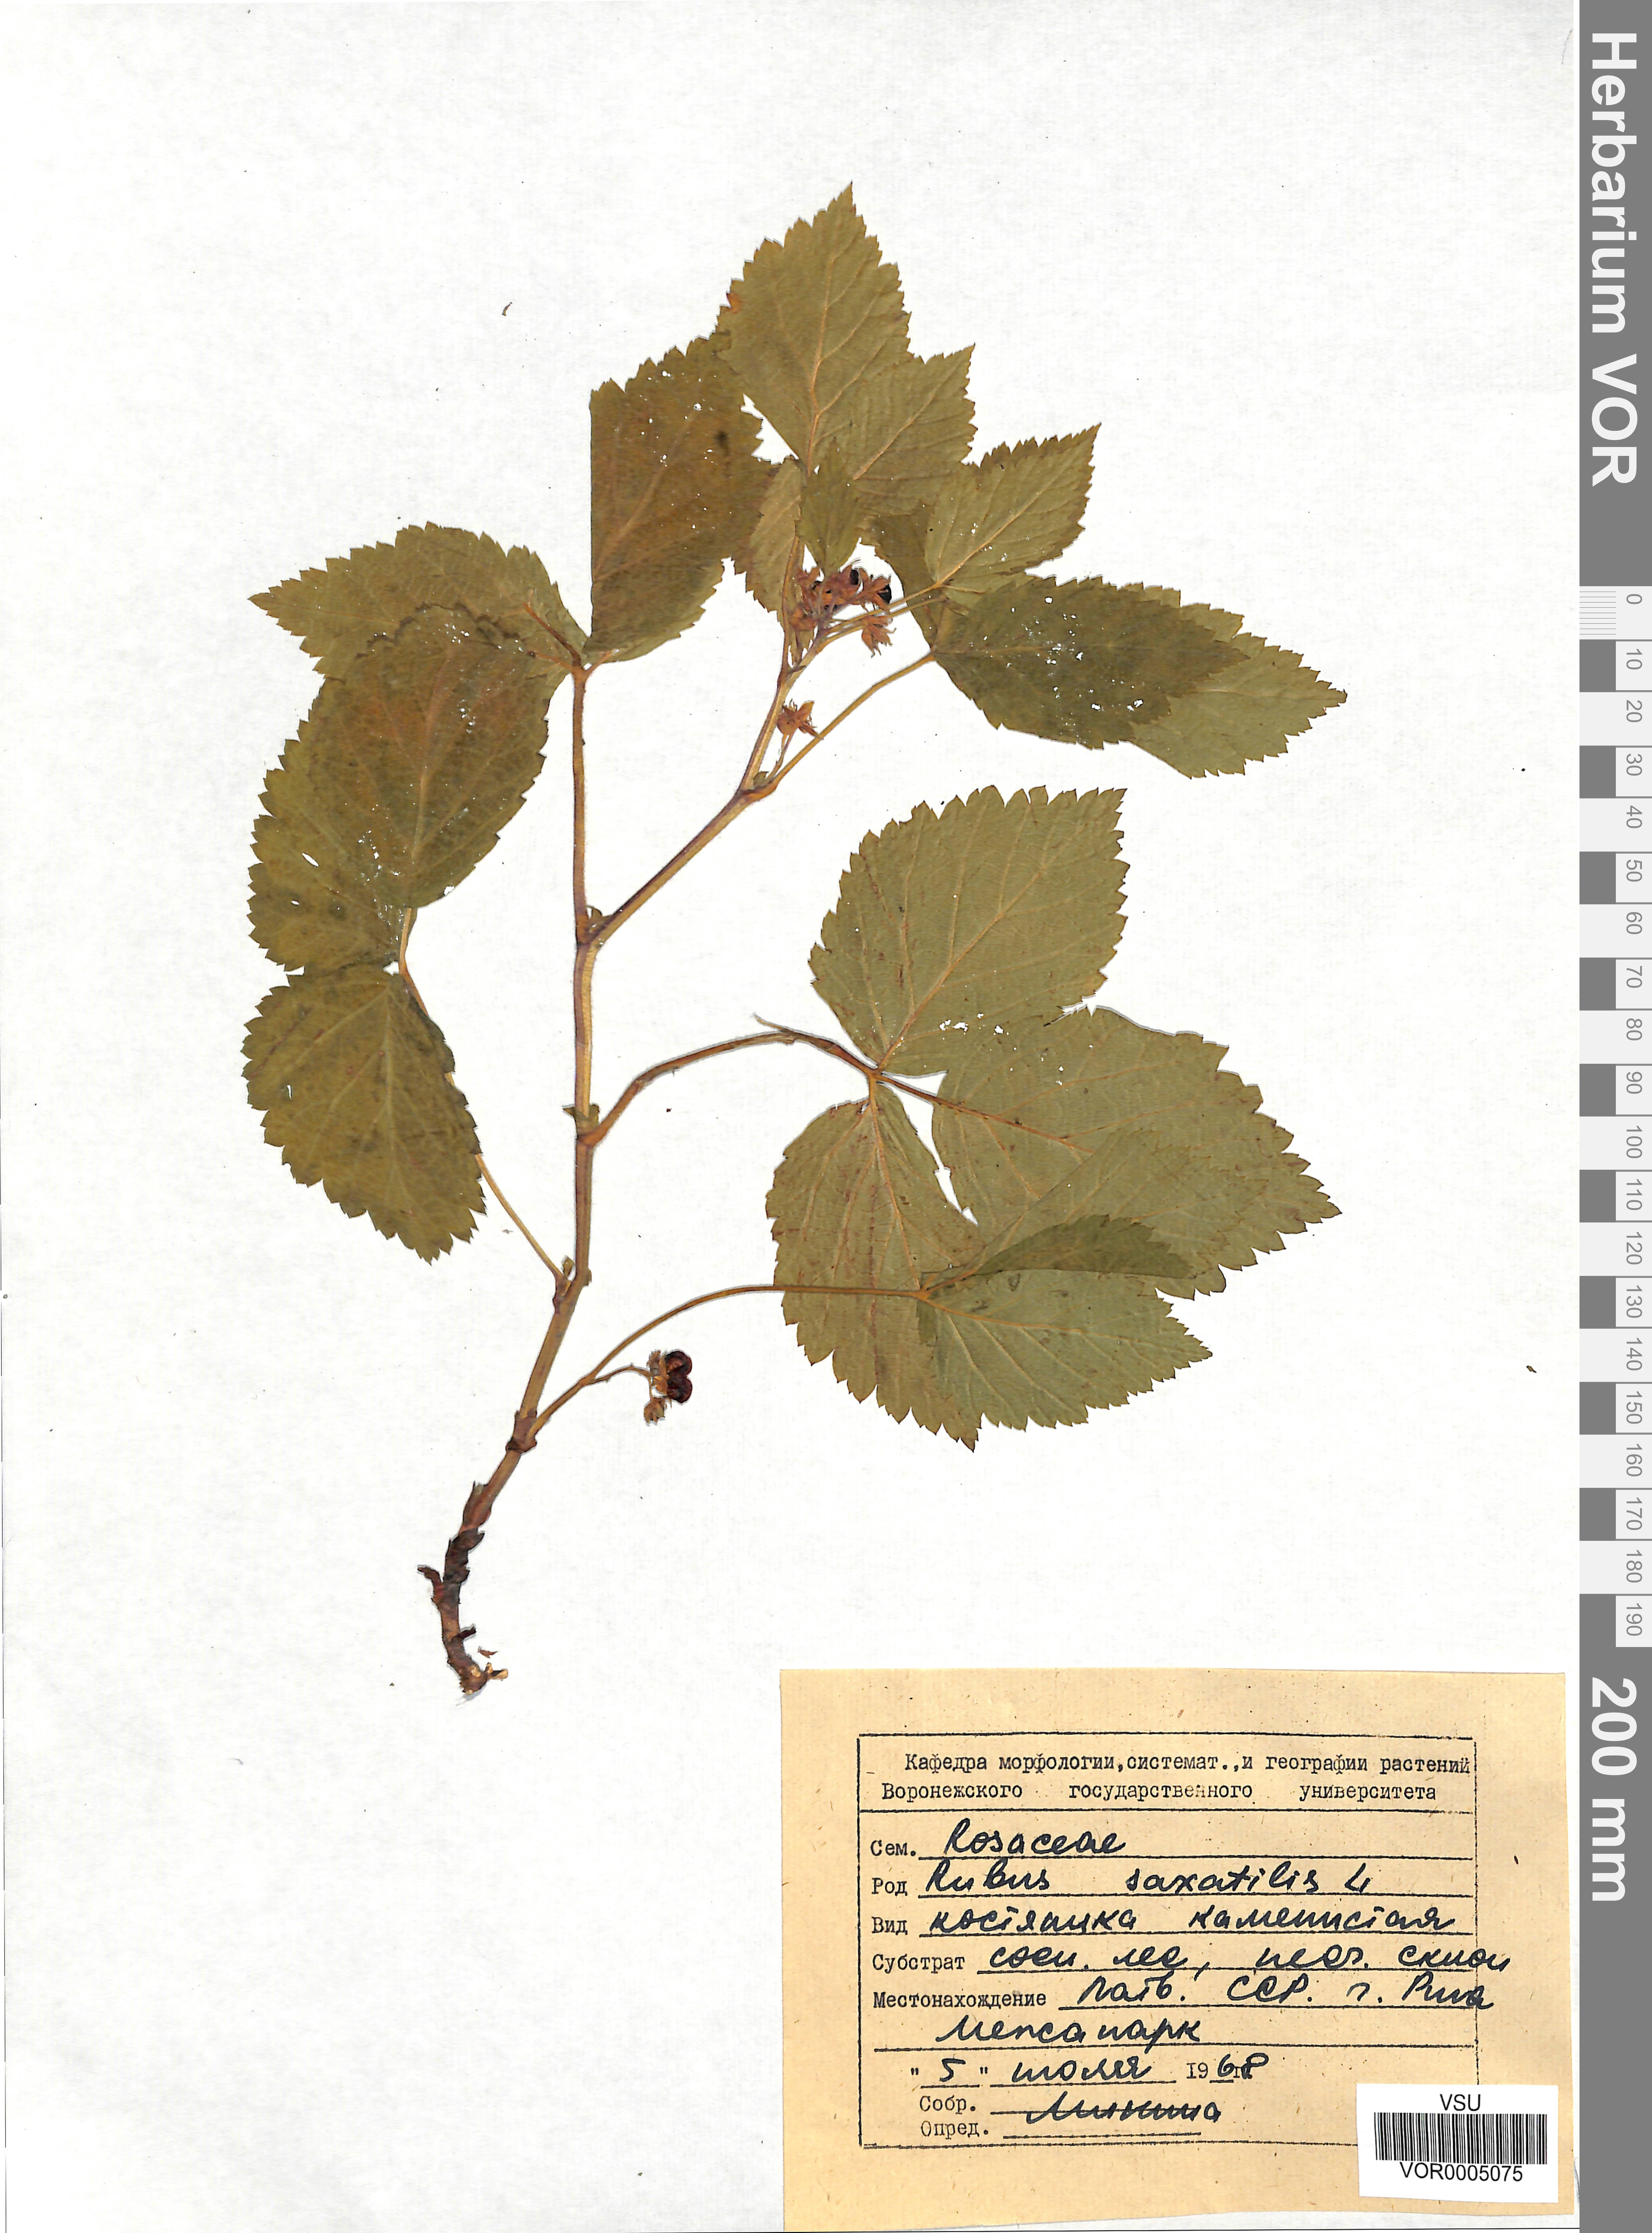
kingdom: Plantae
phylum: Tracheophyta
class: Magnoliopsida
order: Rosales
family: Rosaceae
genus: Rubus
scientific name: Rubus saxatilis
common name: Stone bramble
